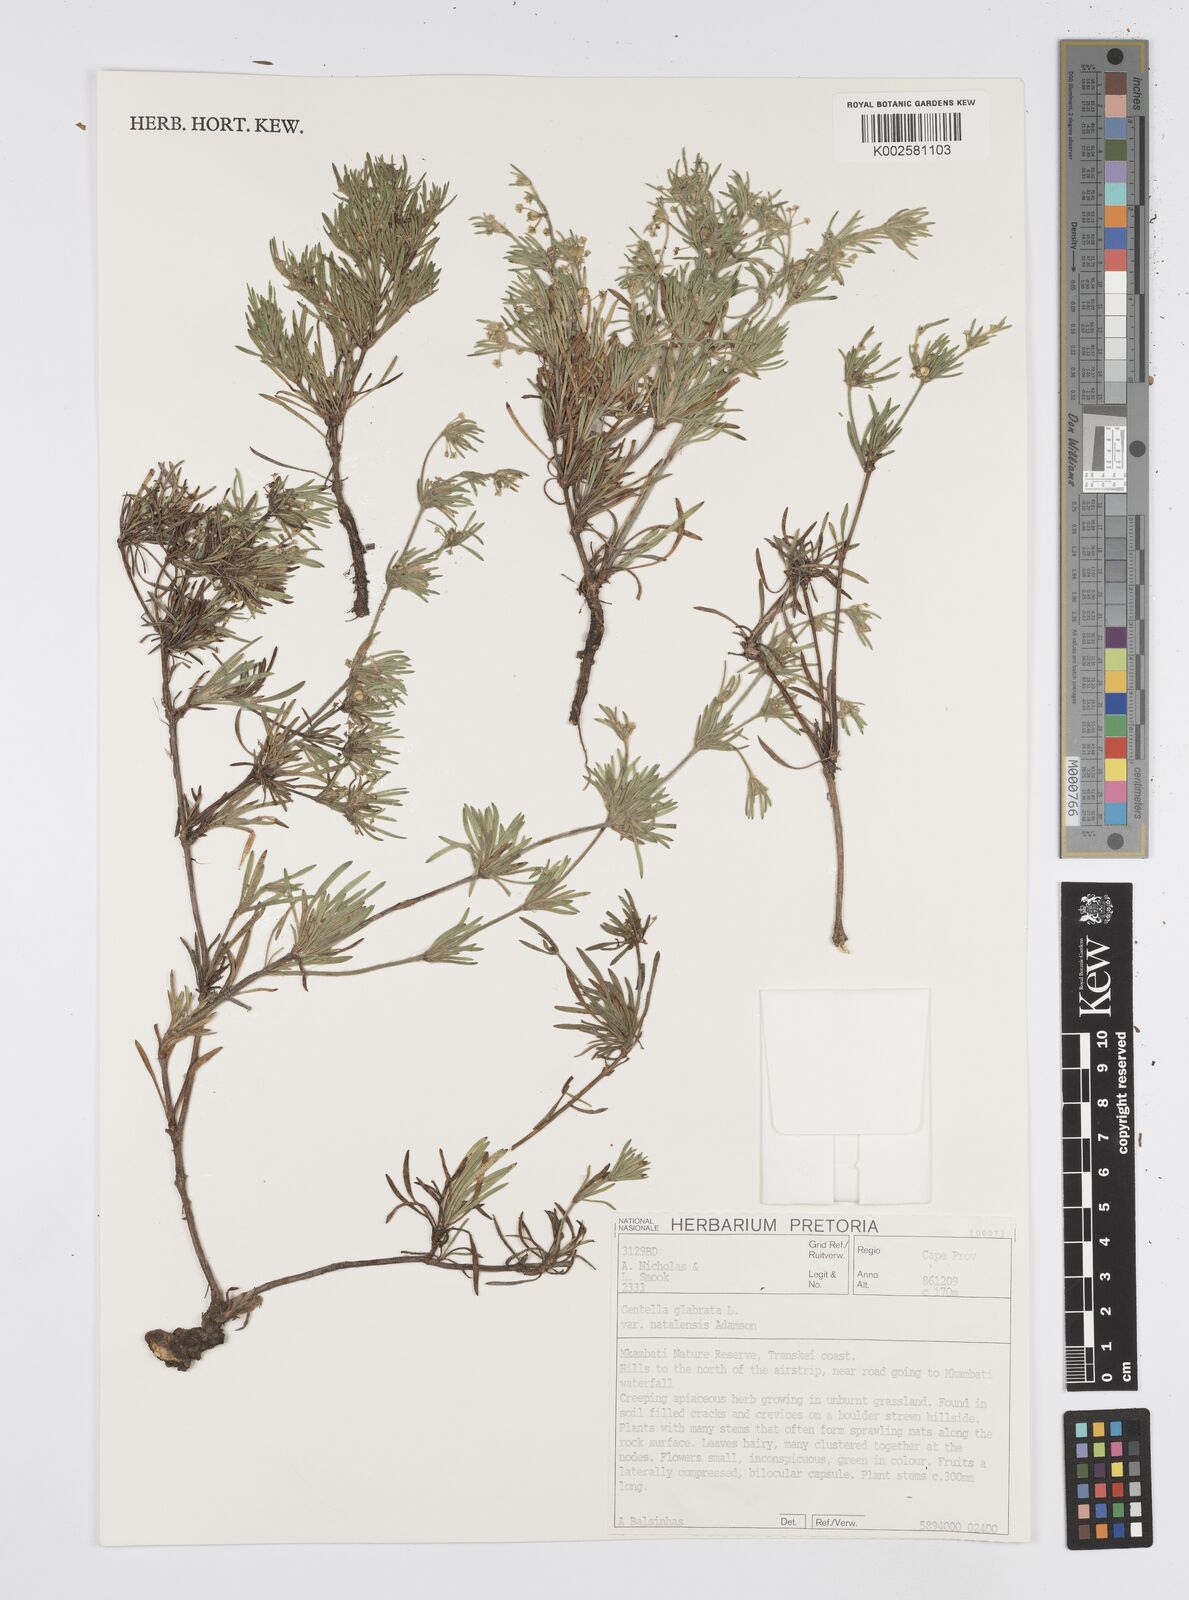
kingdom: Plantae
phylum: Tracheophyta
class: Magnoliopsida
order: Apiales
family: Apiaceae
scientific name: Apiaceae
